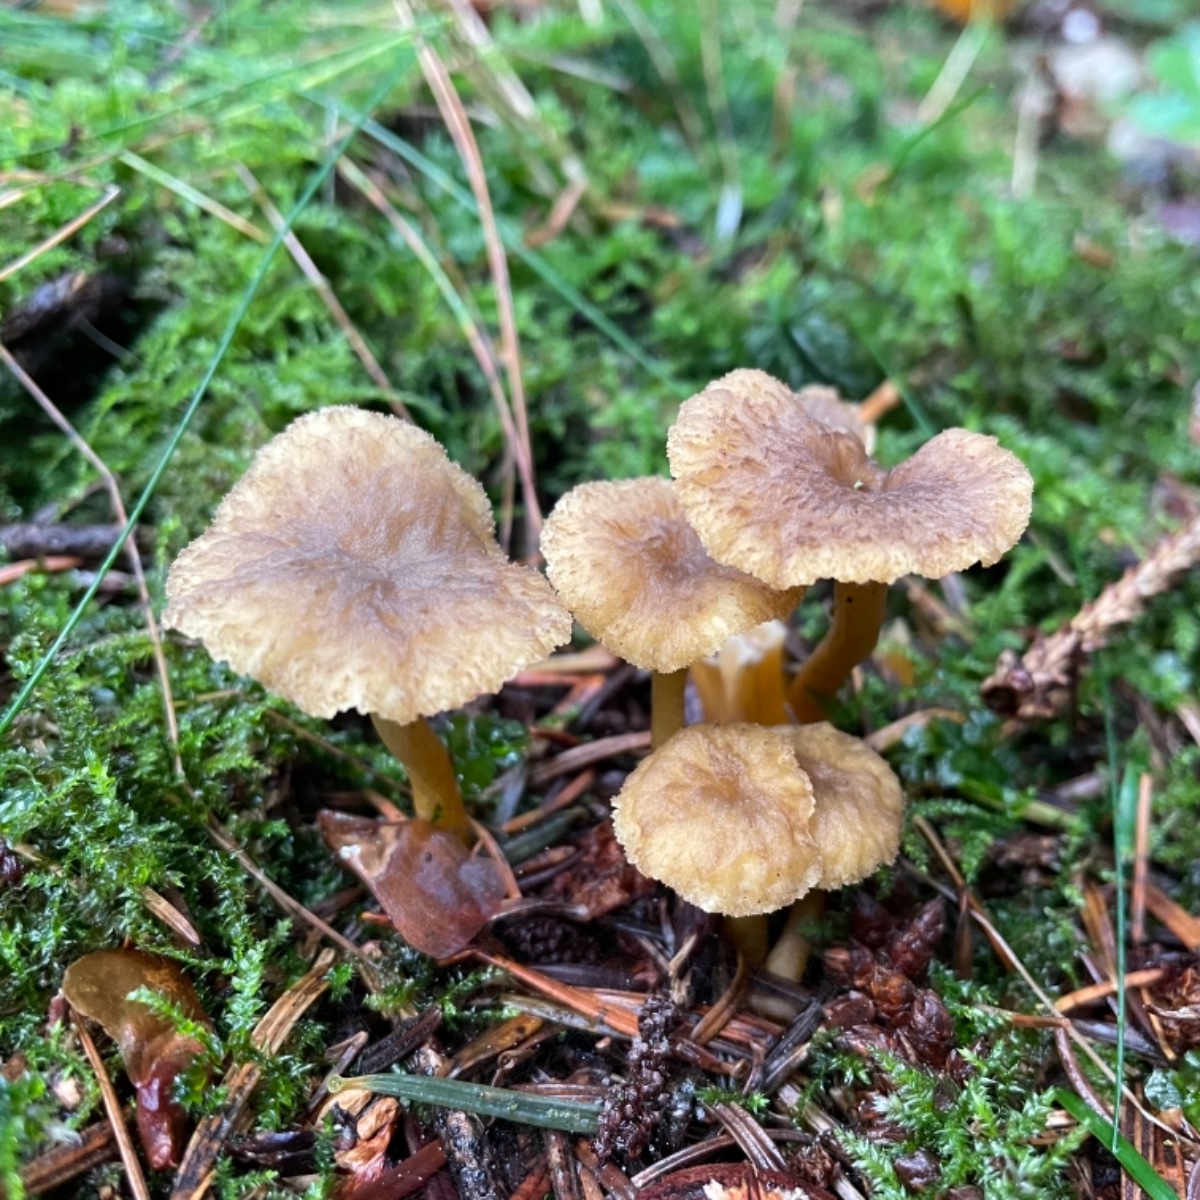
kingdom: Fungi
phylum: Basidiomycota
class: Agaricomycetes
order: Cantharellales
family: Hydnaceae
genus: Craterellus
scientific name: Craterellus tubaeformis
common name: tragt-kantarel
